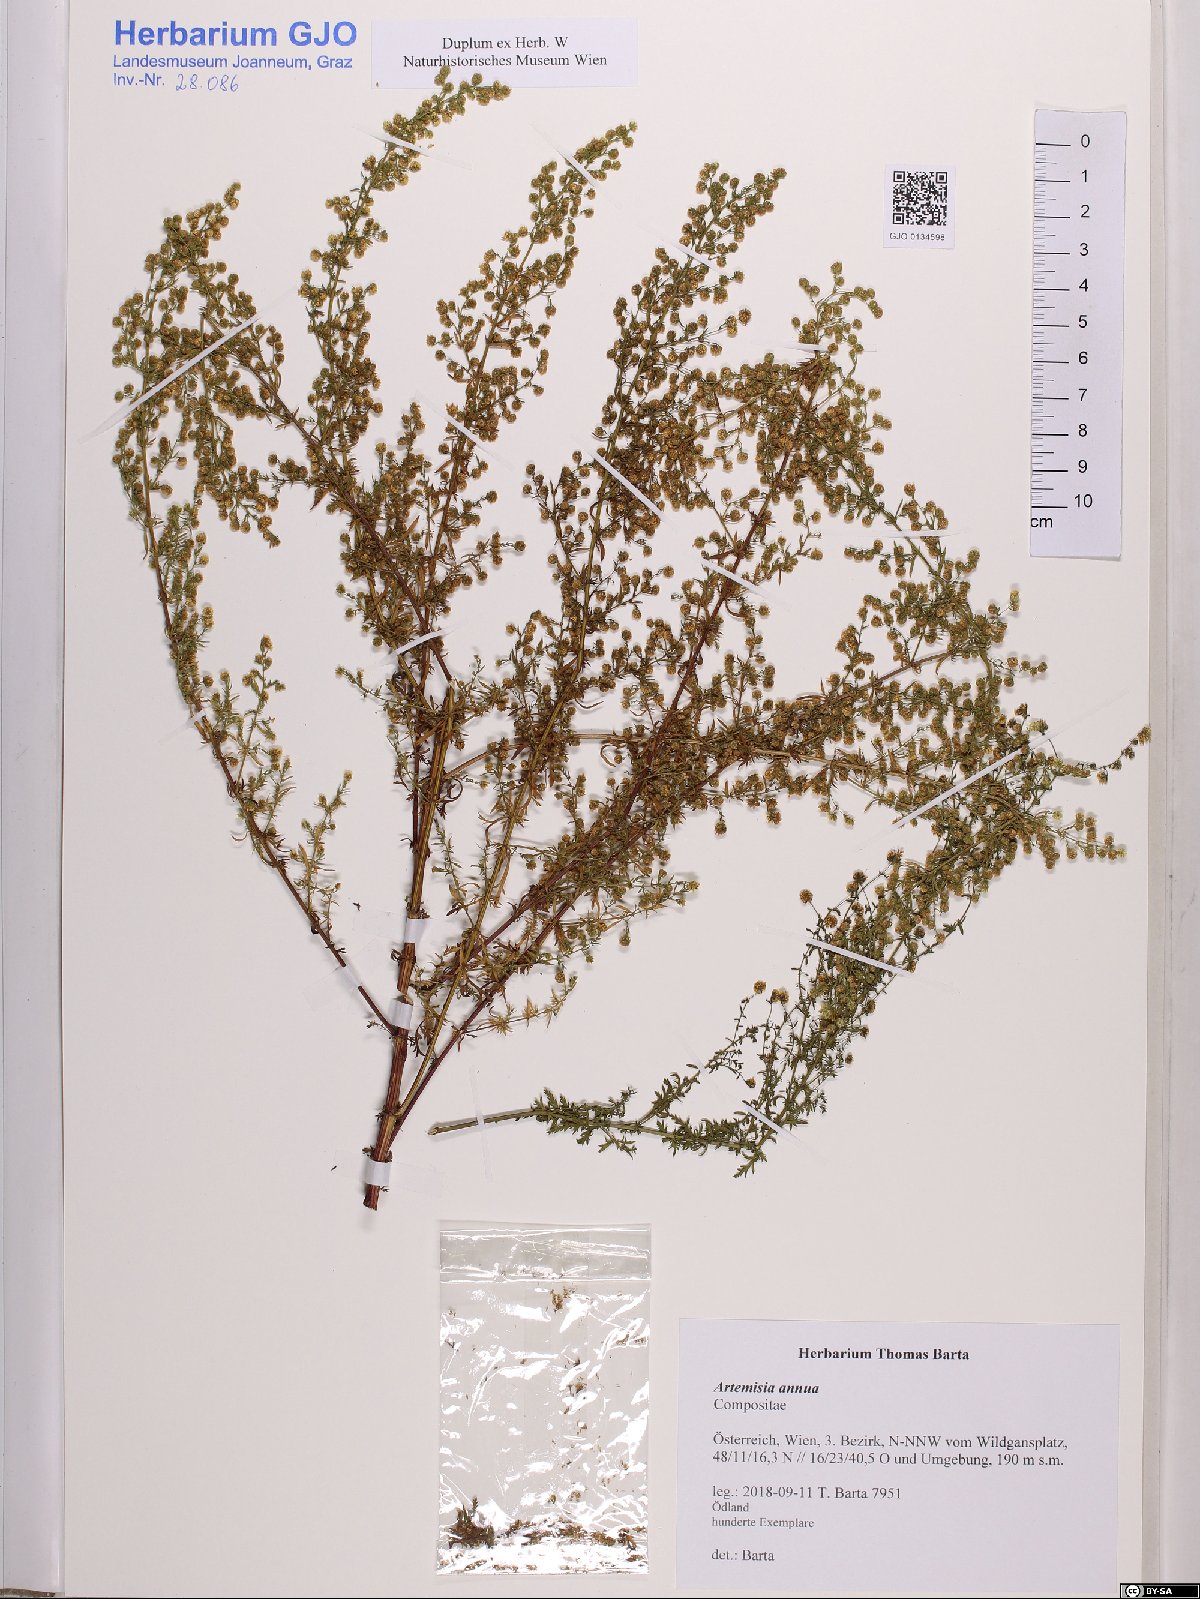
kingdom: Plantae
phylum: Tracheophyta
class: Magnoliopsida
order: Asterales
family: Asteraceae
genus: Artemisia
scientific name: Artemisia annua
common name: Sweet sagewort
